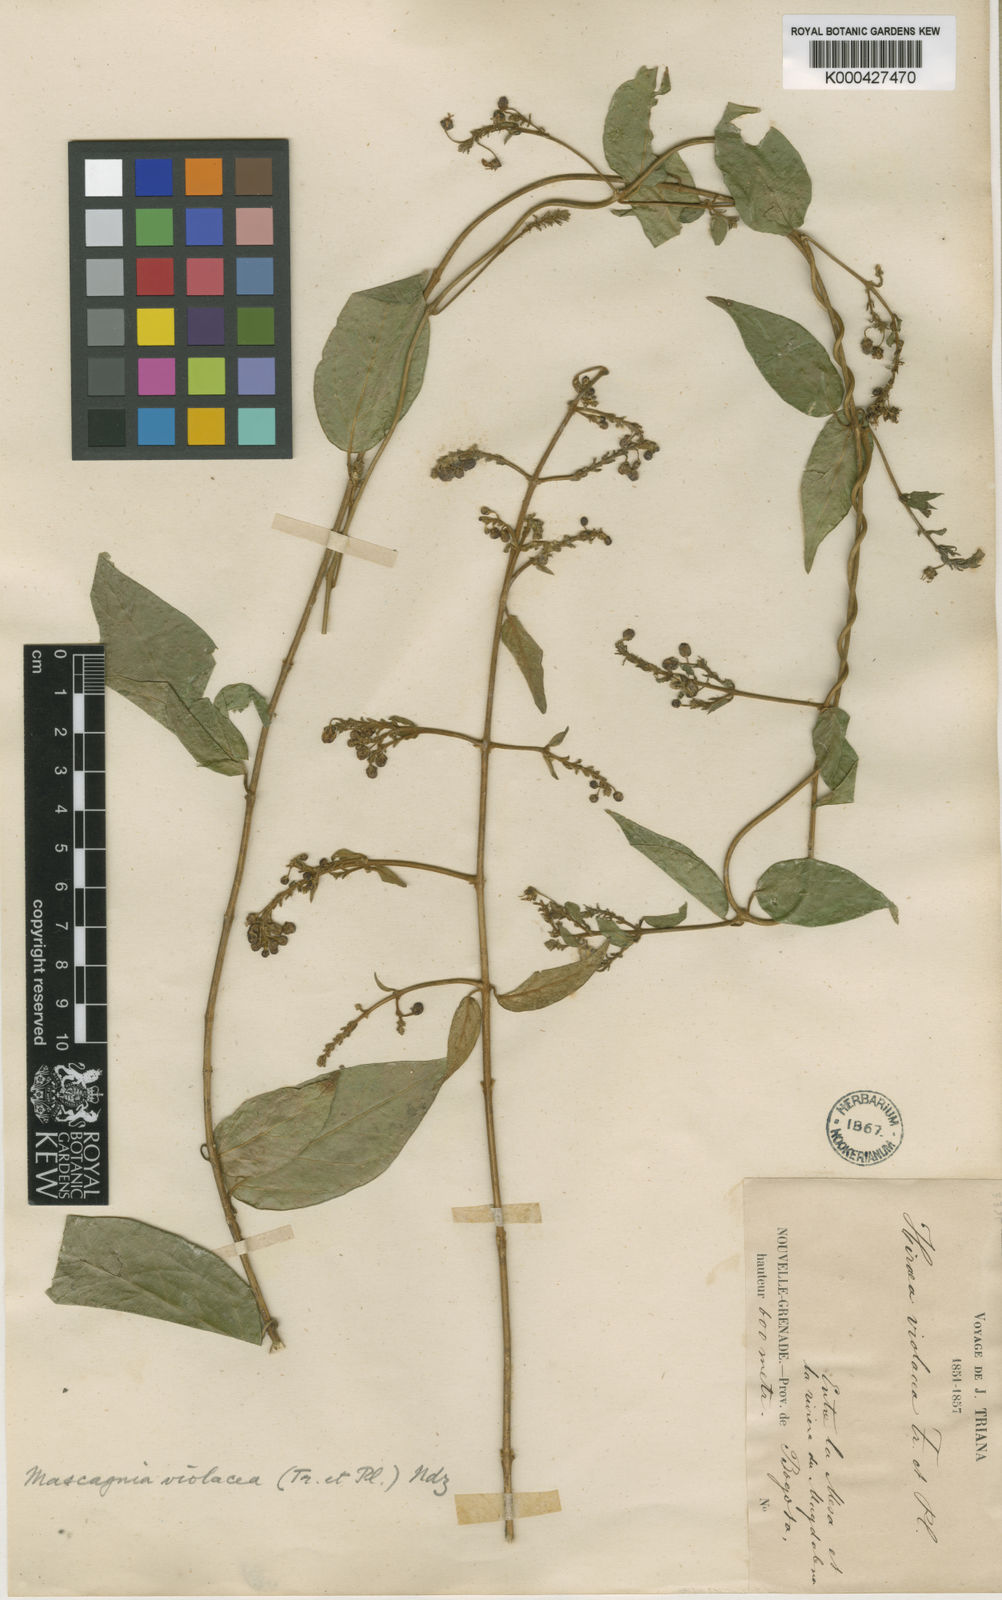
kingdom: Plantae
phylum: Tracheophyta
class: Magnoliopsida
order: Malpighiales
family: Malpighiaceae
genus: Mascagnia
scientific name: Mascagnia violacea
